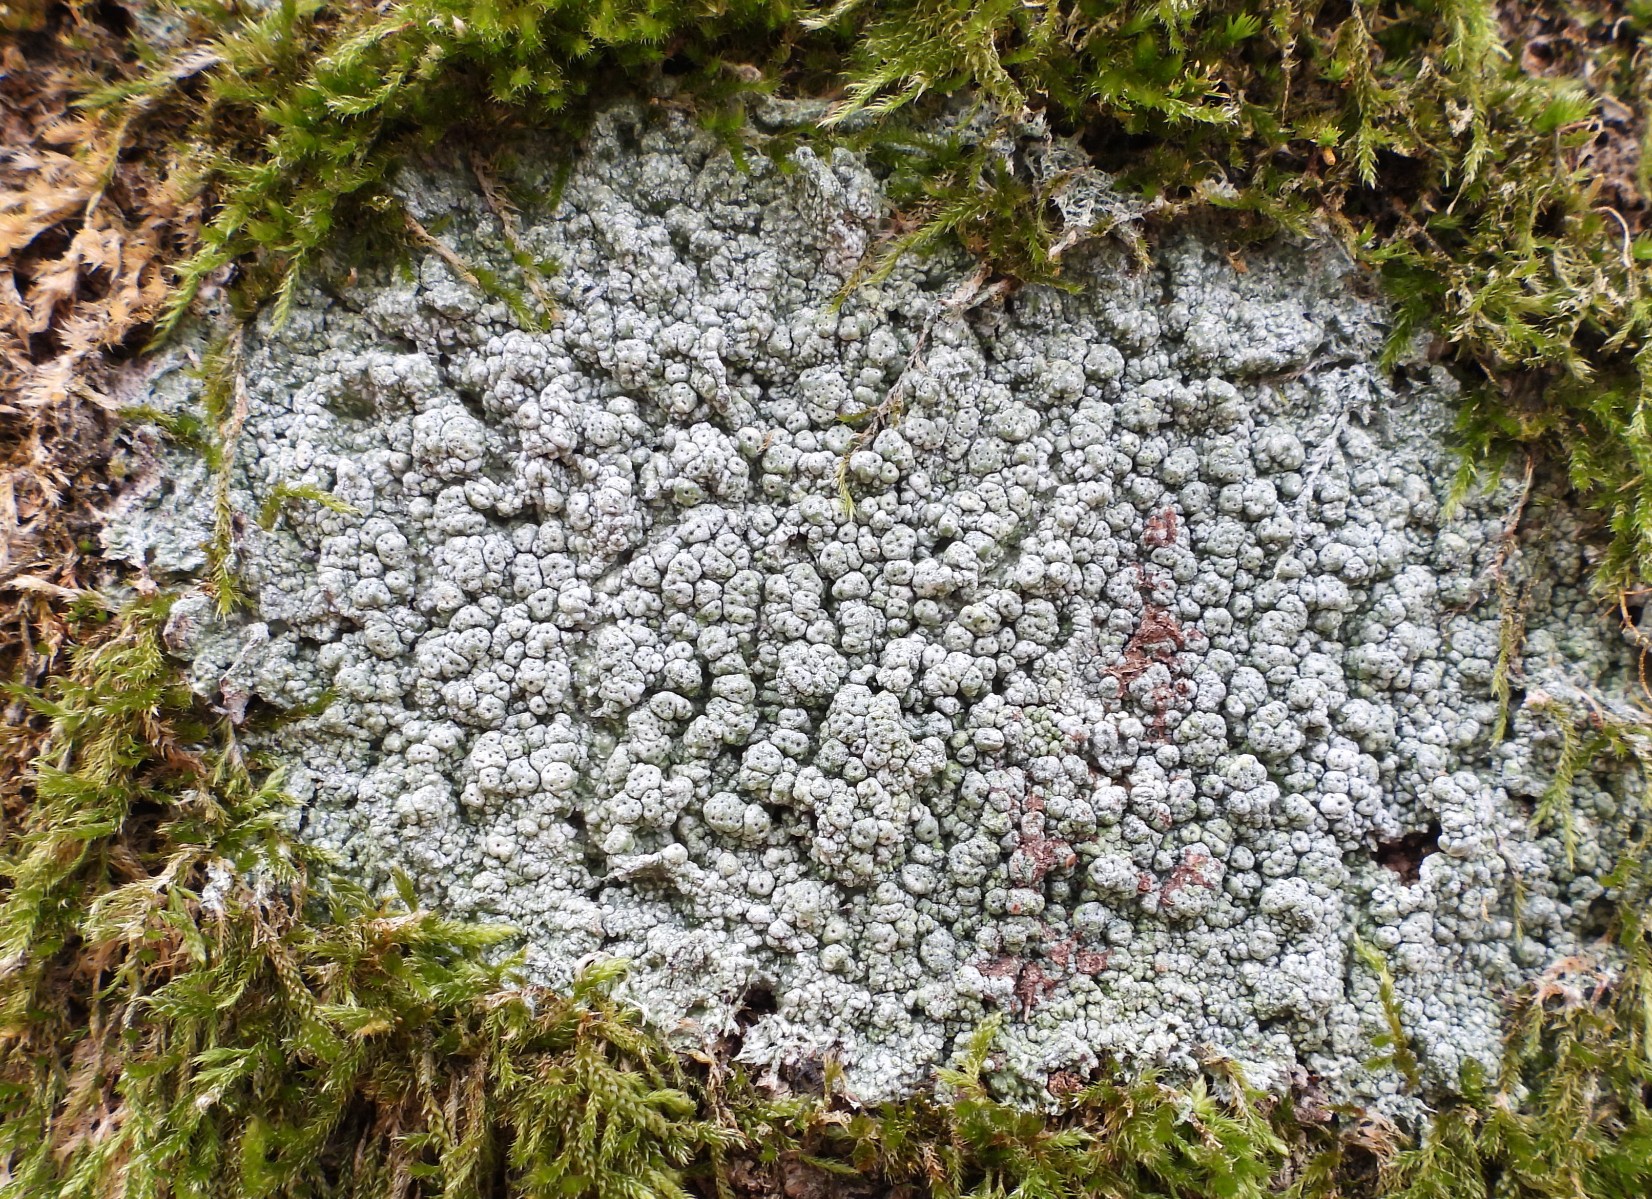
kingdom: Fungi
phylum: Ascomycota
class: Lecanoromycetes
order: Pertusariales
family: Pertusariaceae
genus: Pertusaria
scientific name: Pertusaria pertusa
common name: almindelig prikvortelav
